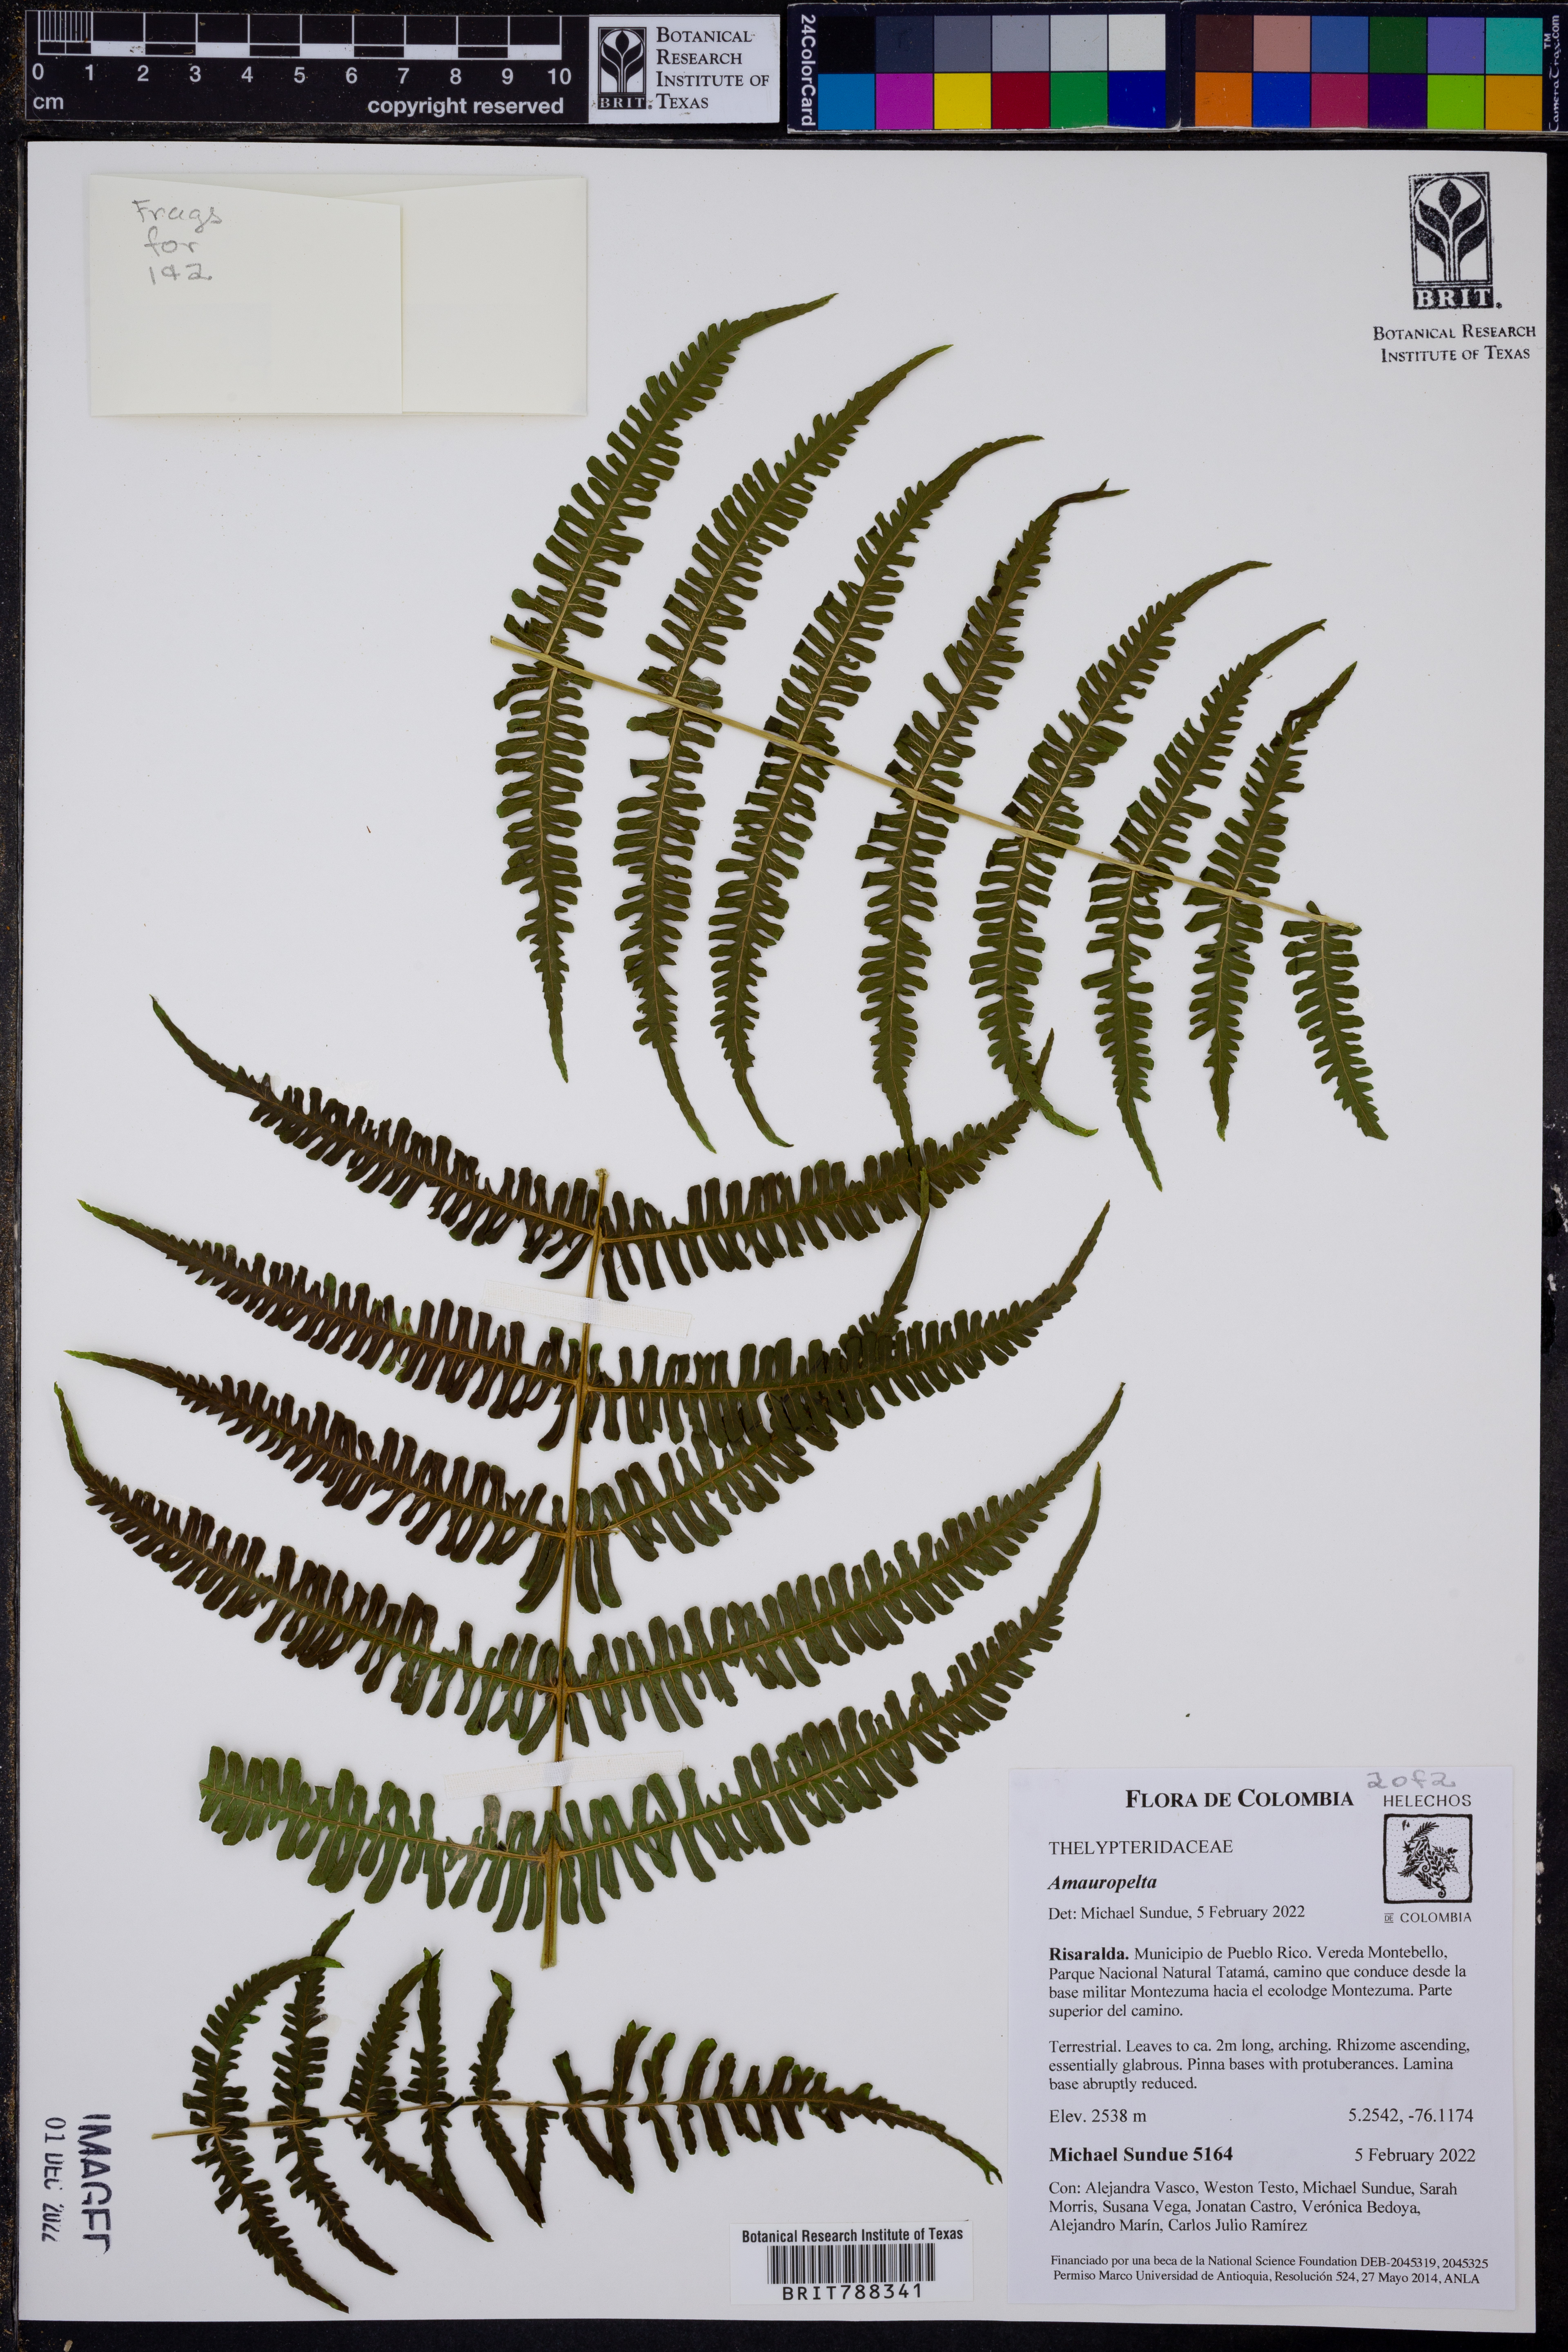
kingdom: Plantae
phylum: Tracheophyta
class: Polypodiopsida
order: Polypodiales
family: Thelypteridaceae
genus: Amauropelta
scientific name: Amauropelta appressa
